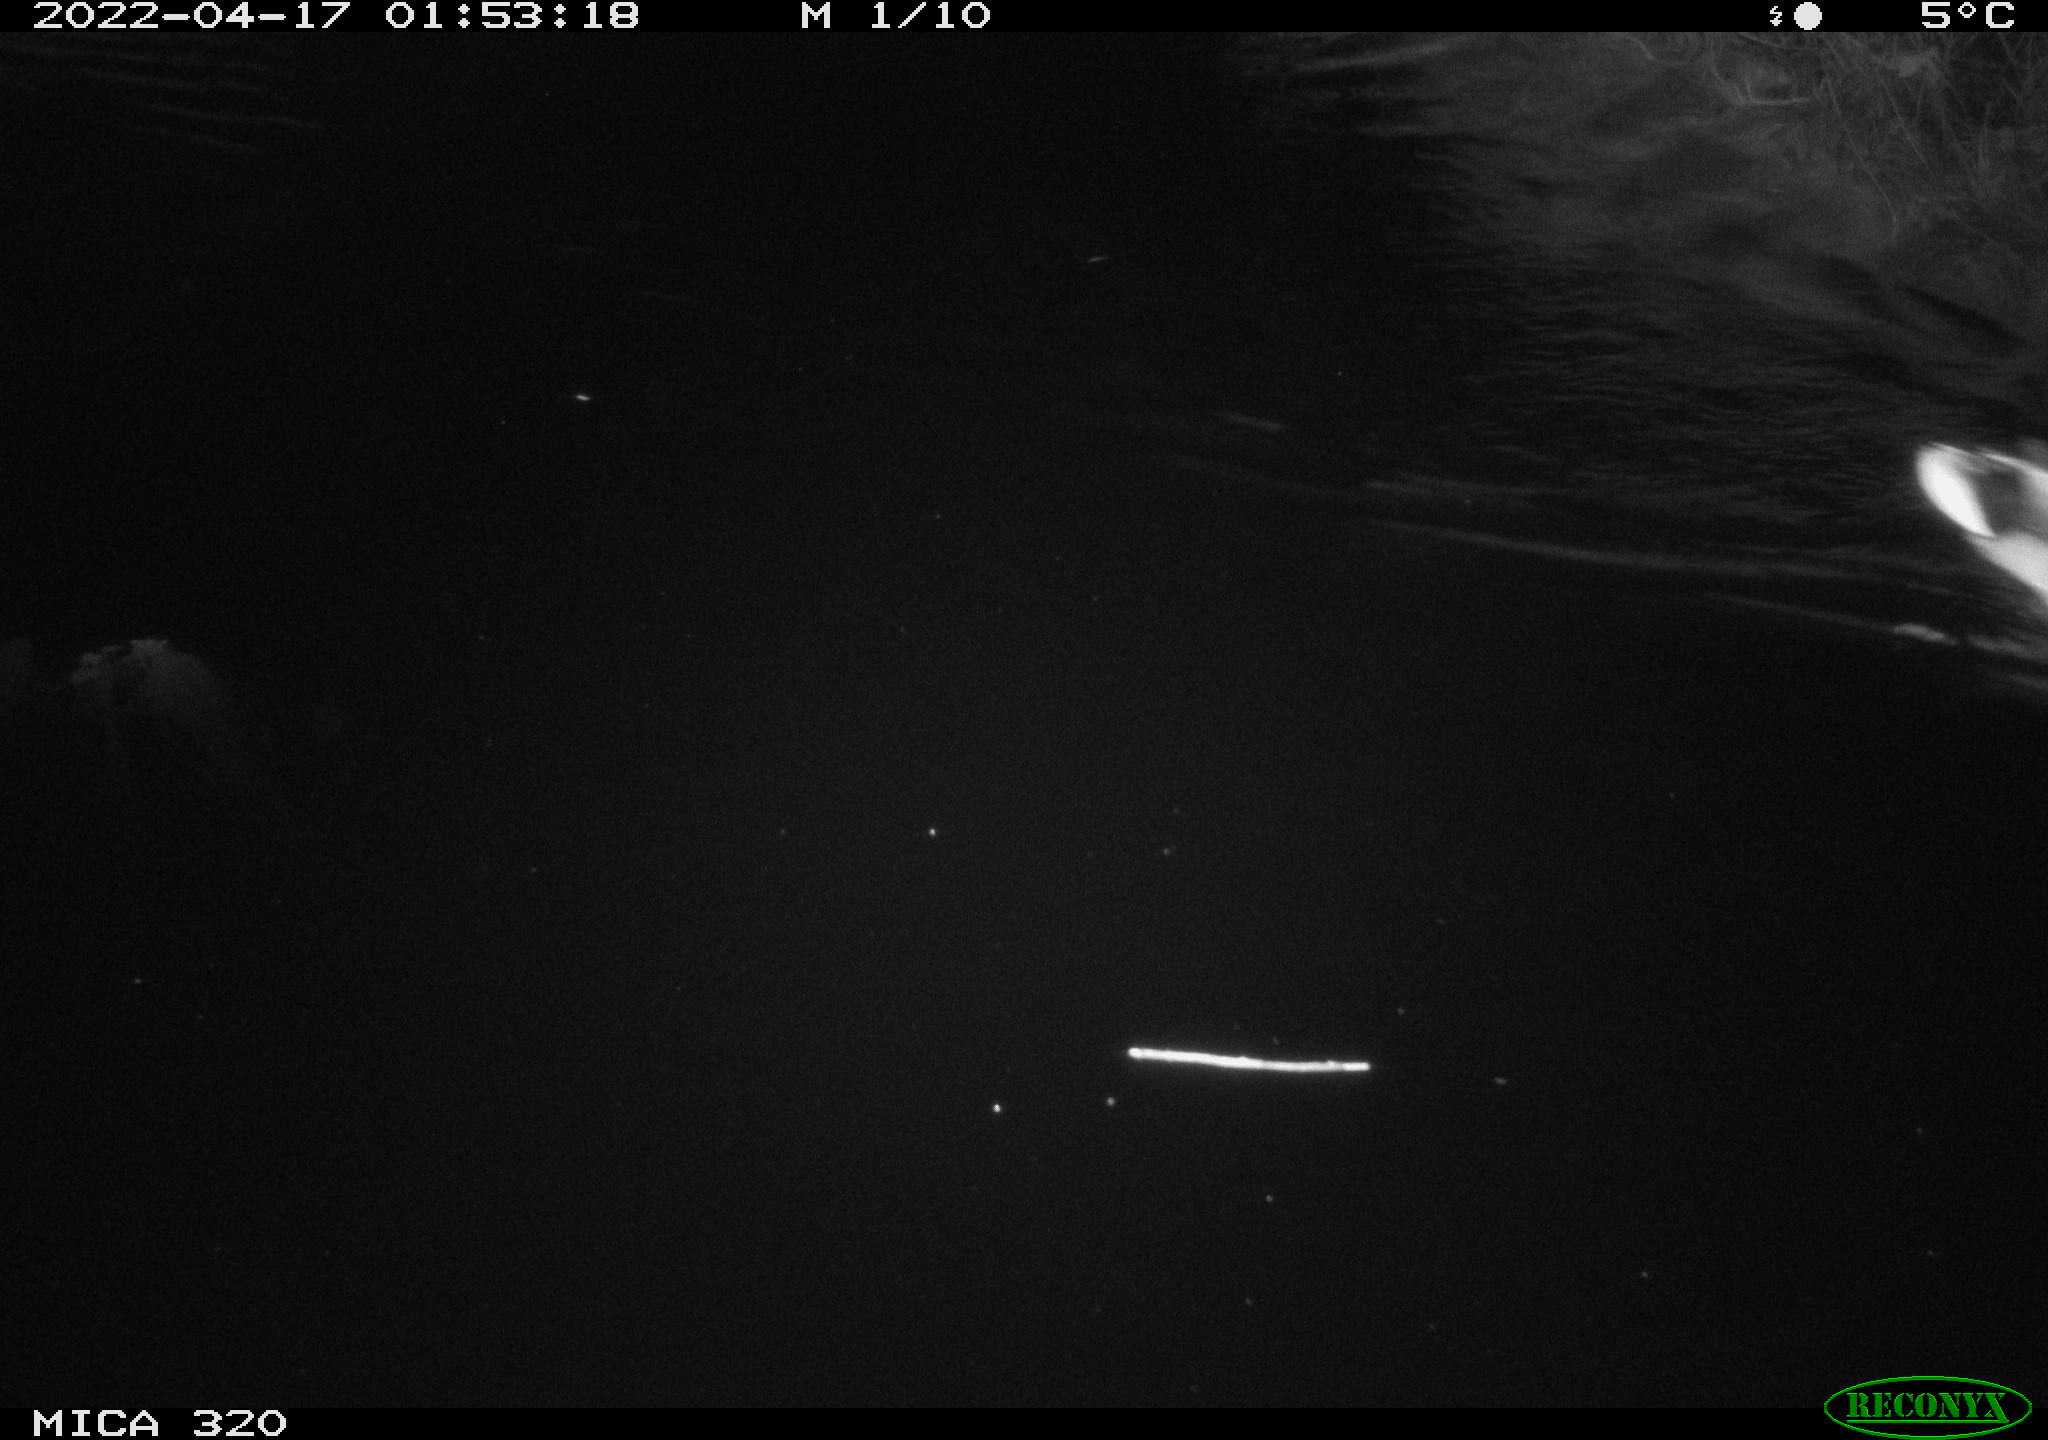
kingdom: Animalia
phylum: Chordata
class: Aves
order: Anseriformes
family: Anatidae
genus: Anas
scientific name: Anas platyrhynchos
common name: Mallard
